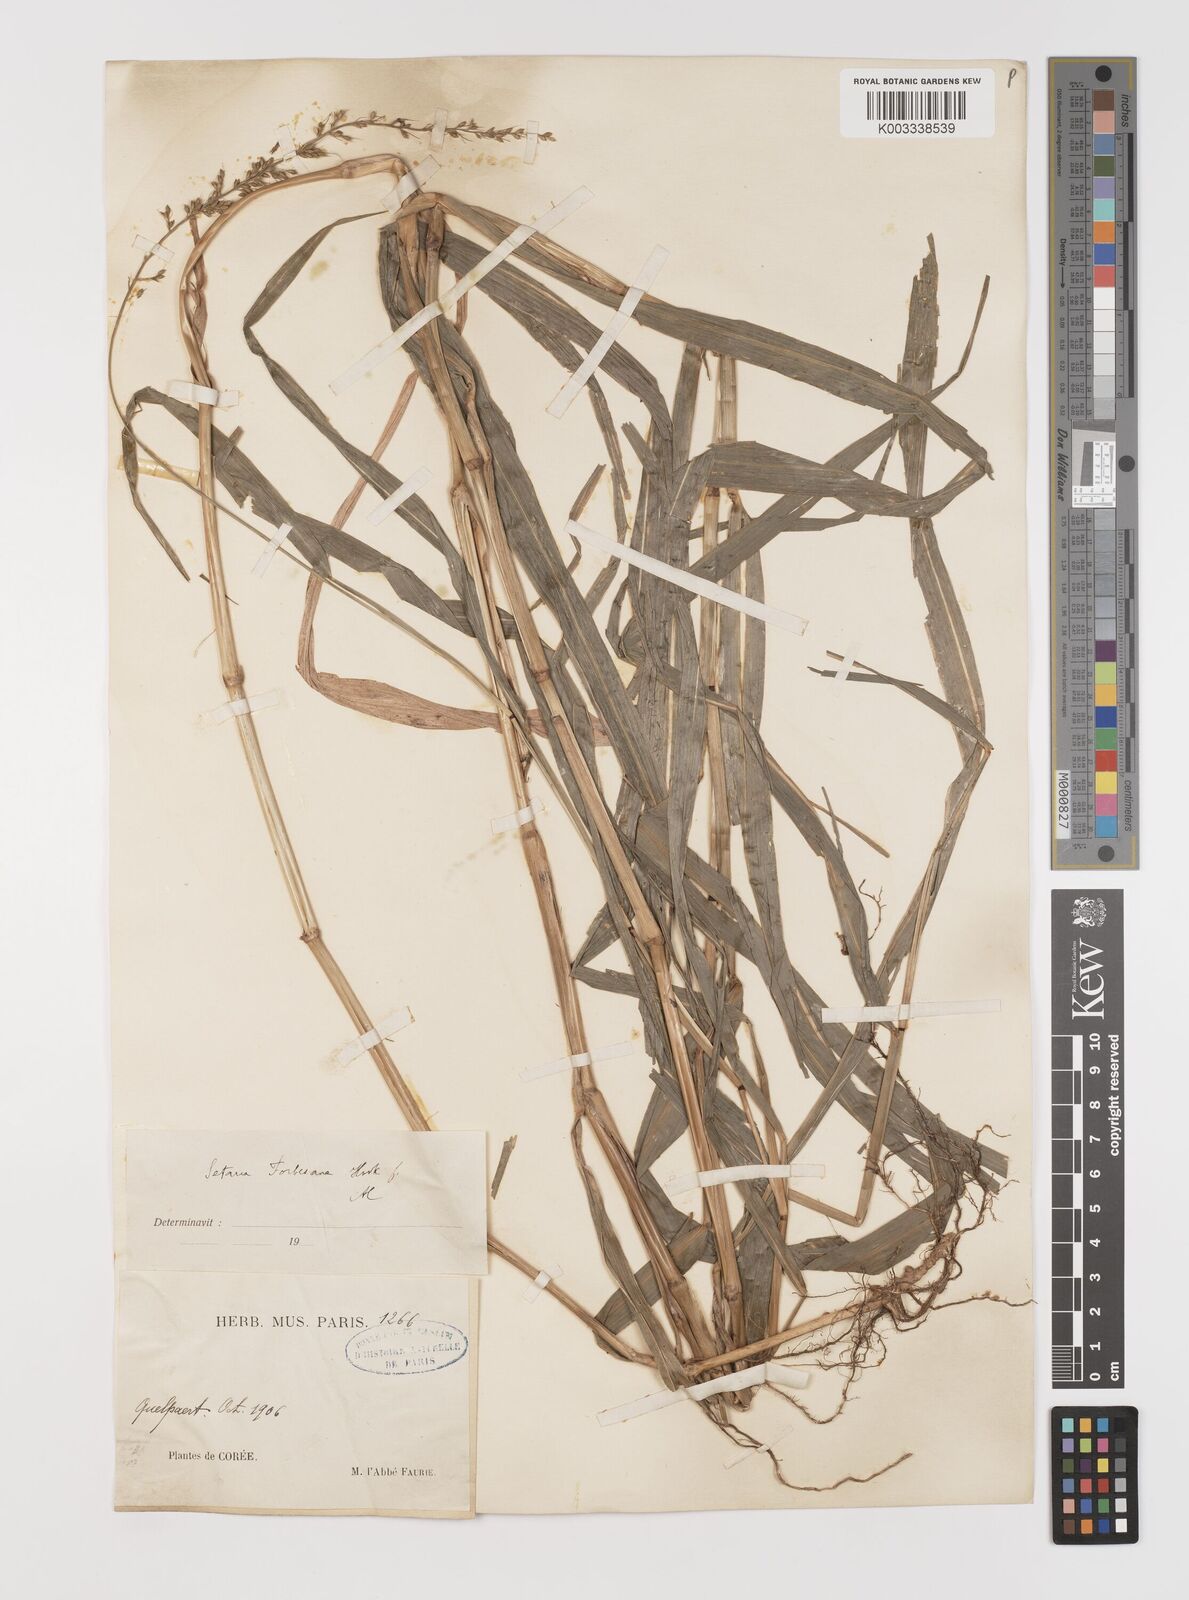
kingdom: Plantae
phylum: Tracheophyta
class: Liliopsida
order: Poales
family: Poaceae
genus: Setaria
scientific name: Setaria chondrachne
